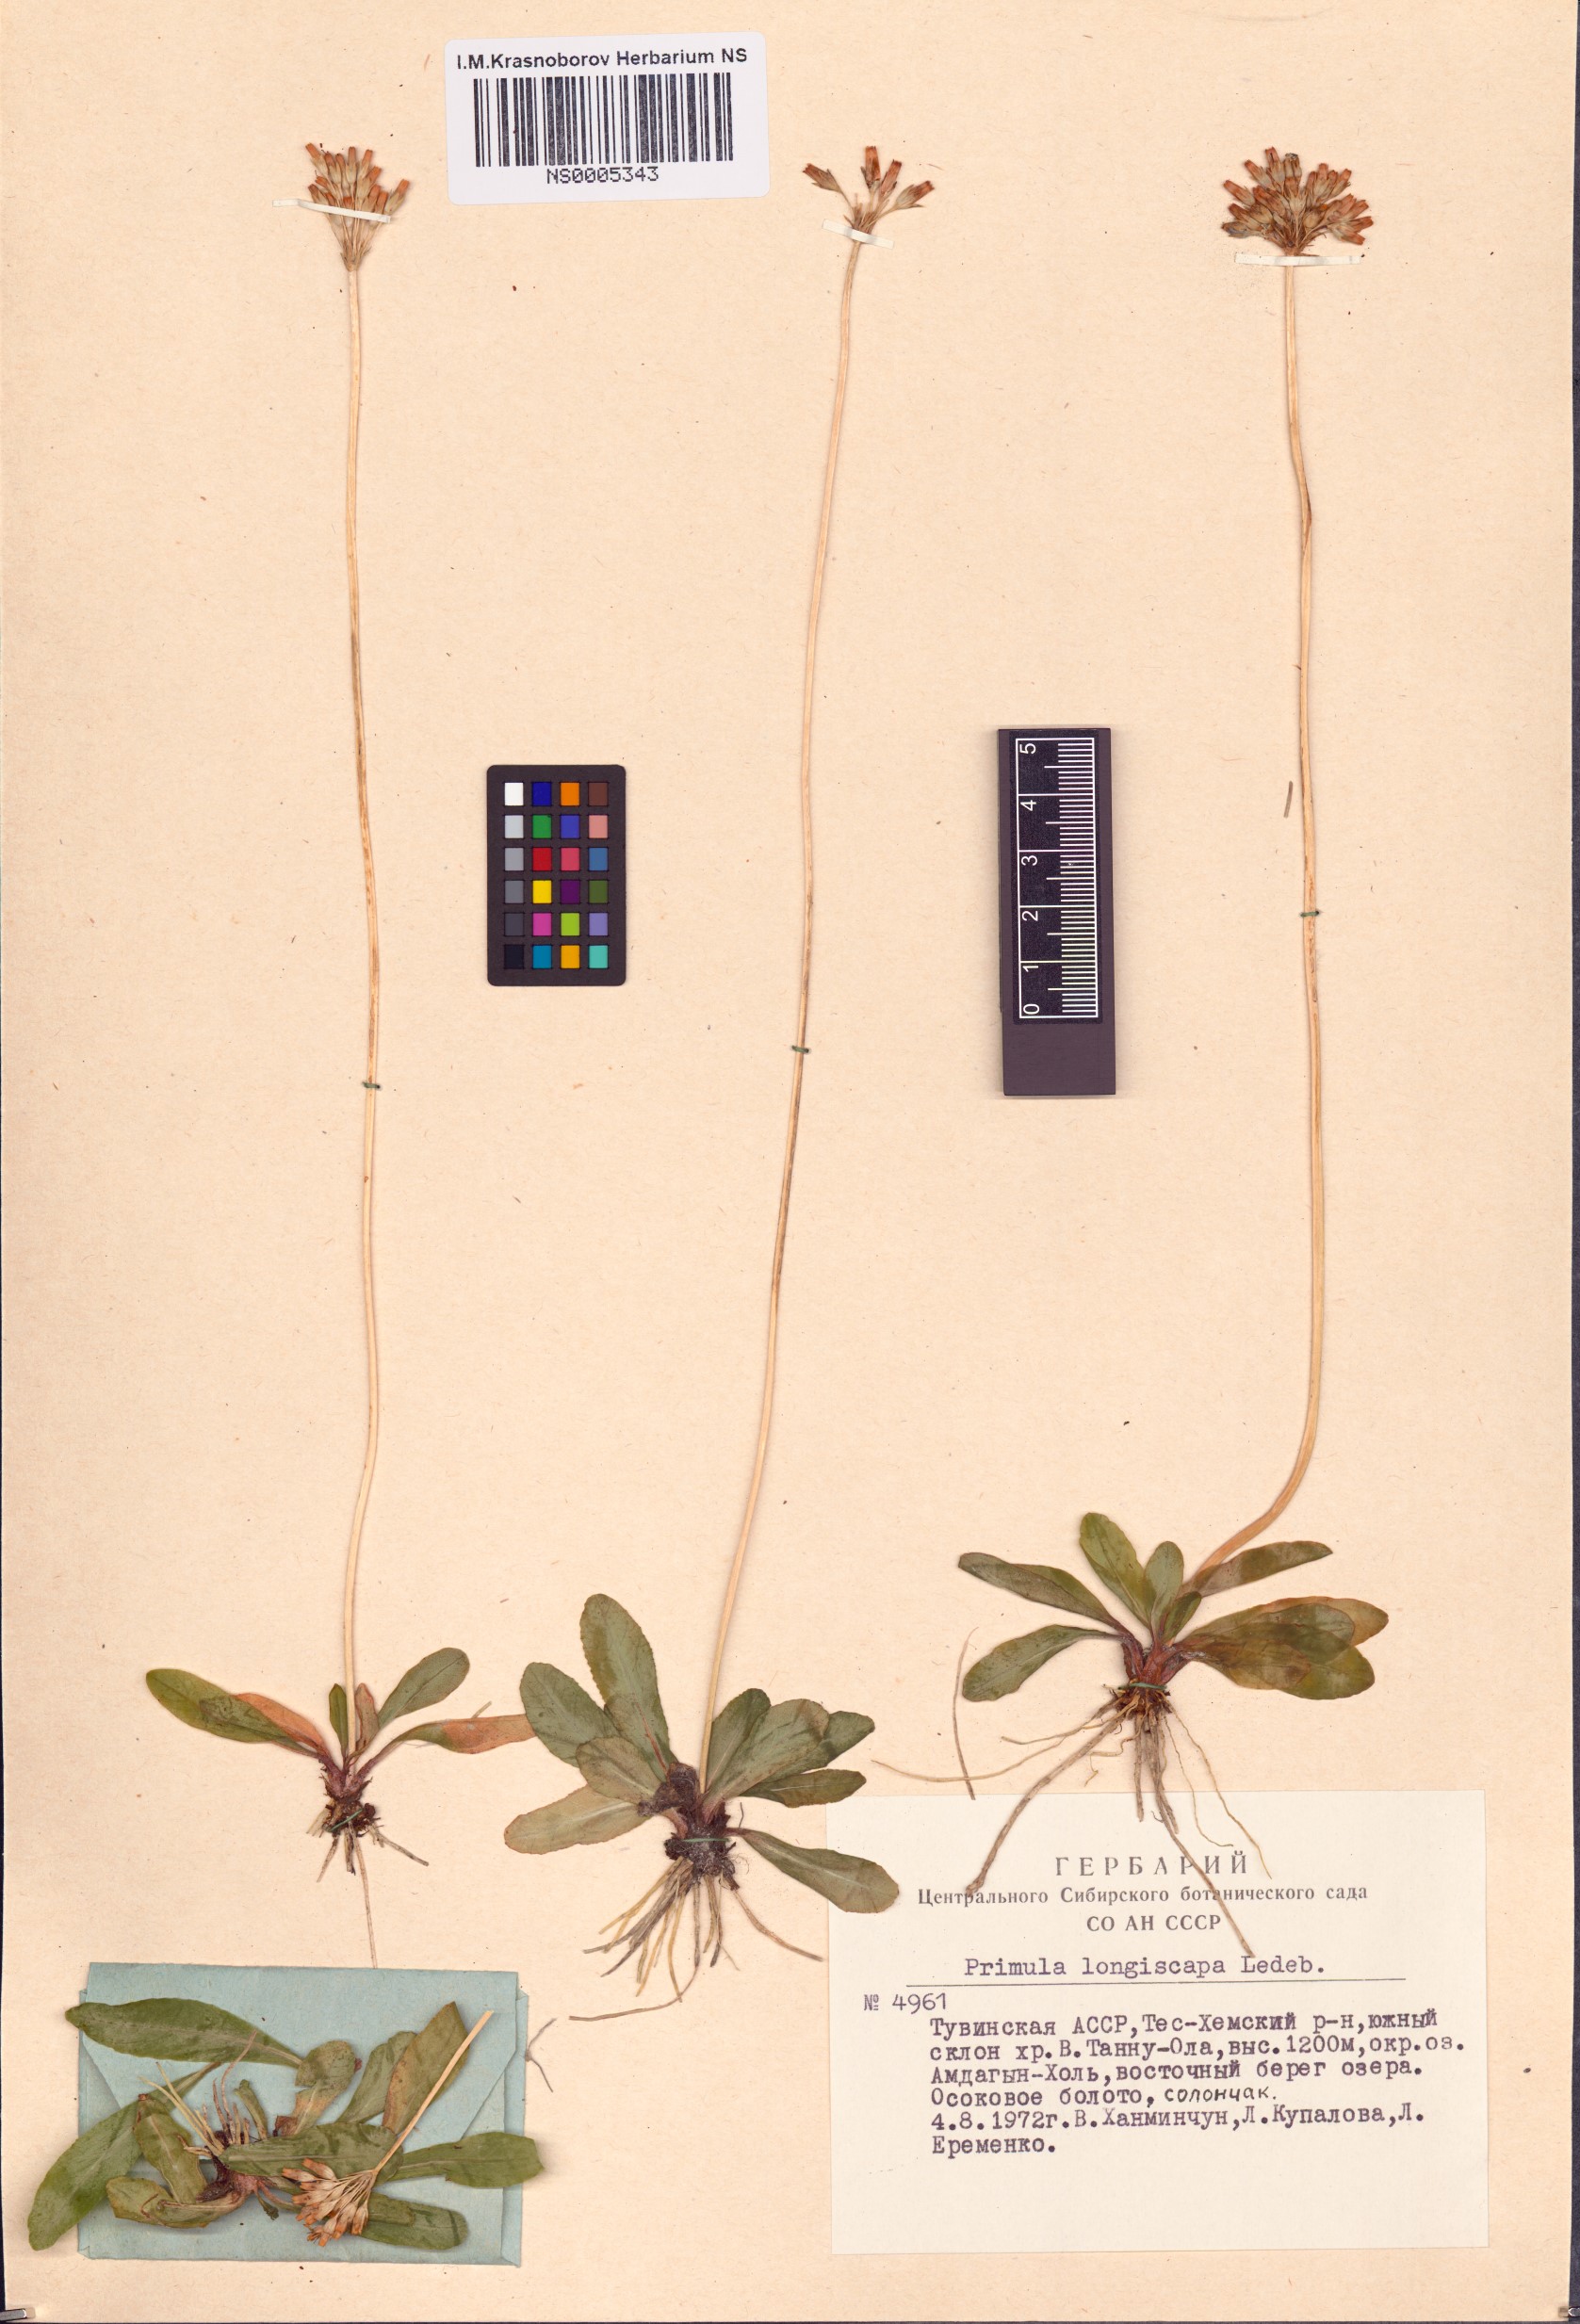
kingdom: Plantae
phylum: Tracheophyta
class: Magnoliopsida
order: Ericales
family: Primulaceae
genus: Primula
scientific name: Primula longiscapa
